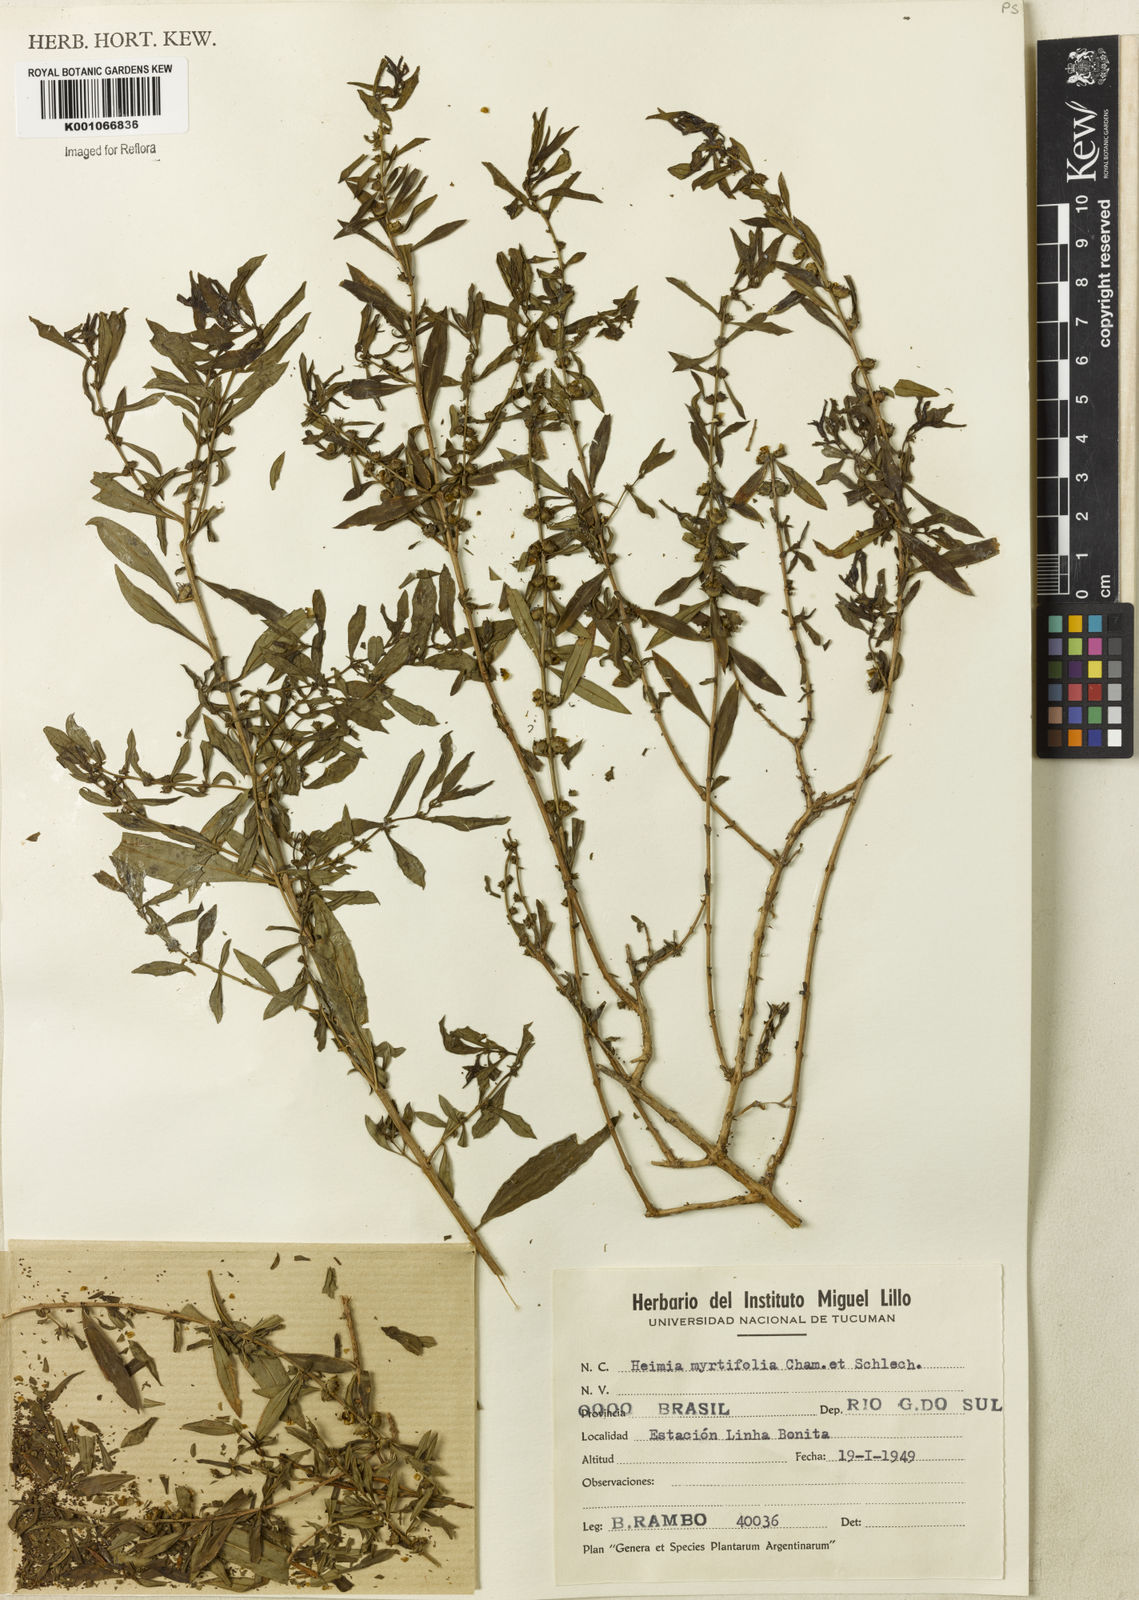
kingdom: Plantae
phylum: Tracheophyta
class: Magnoliopsida
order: Myrtales
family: Lythraceae
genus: Heimia
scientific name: Heimia apetala
